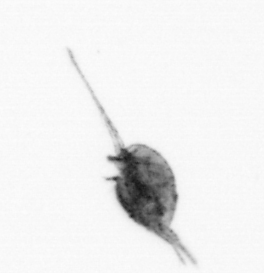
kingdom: Animalia
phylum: Arthropoda
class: Copepoda
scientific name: Copepoda
